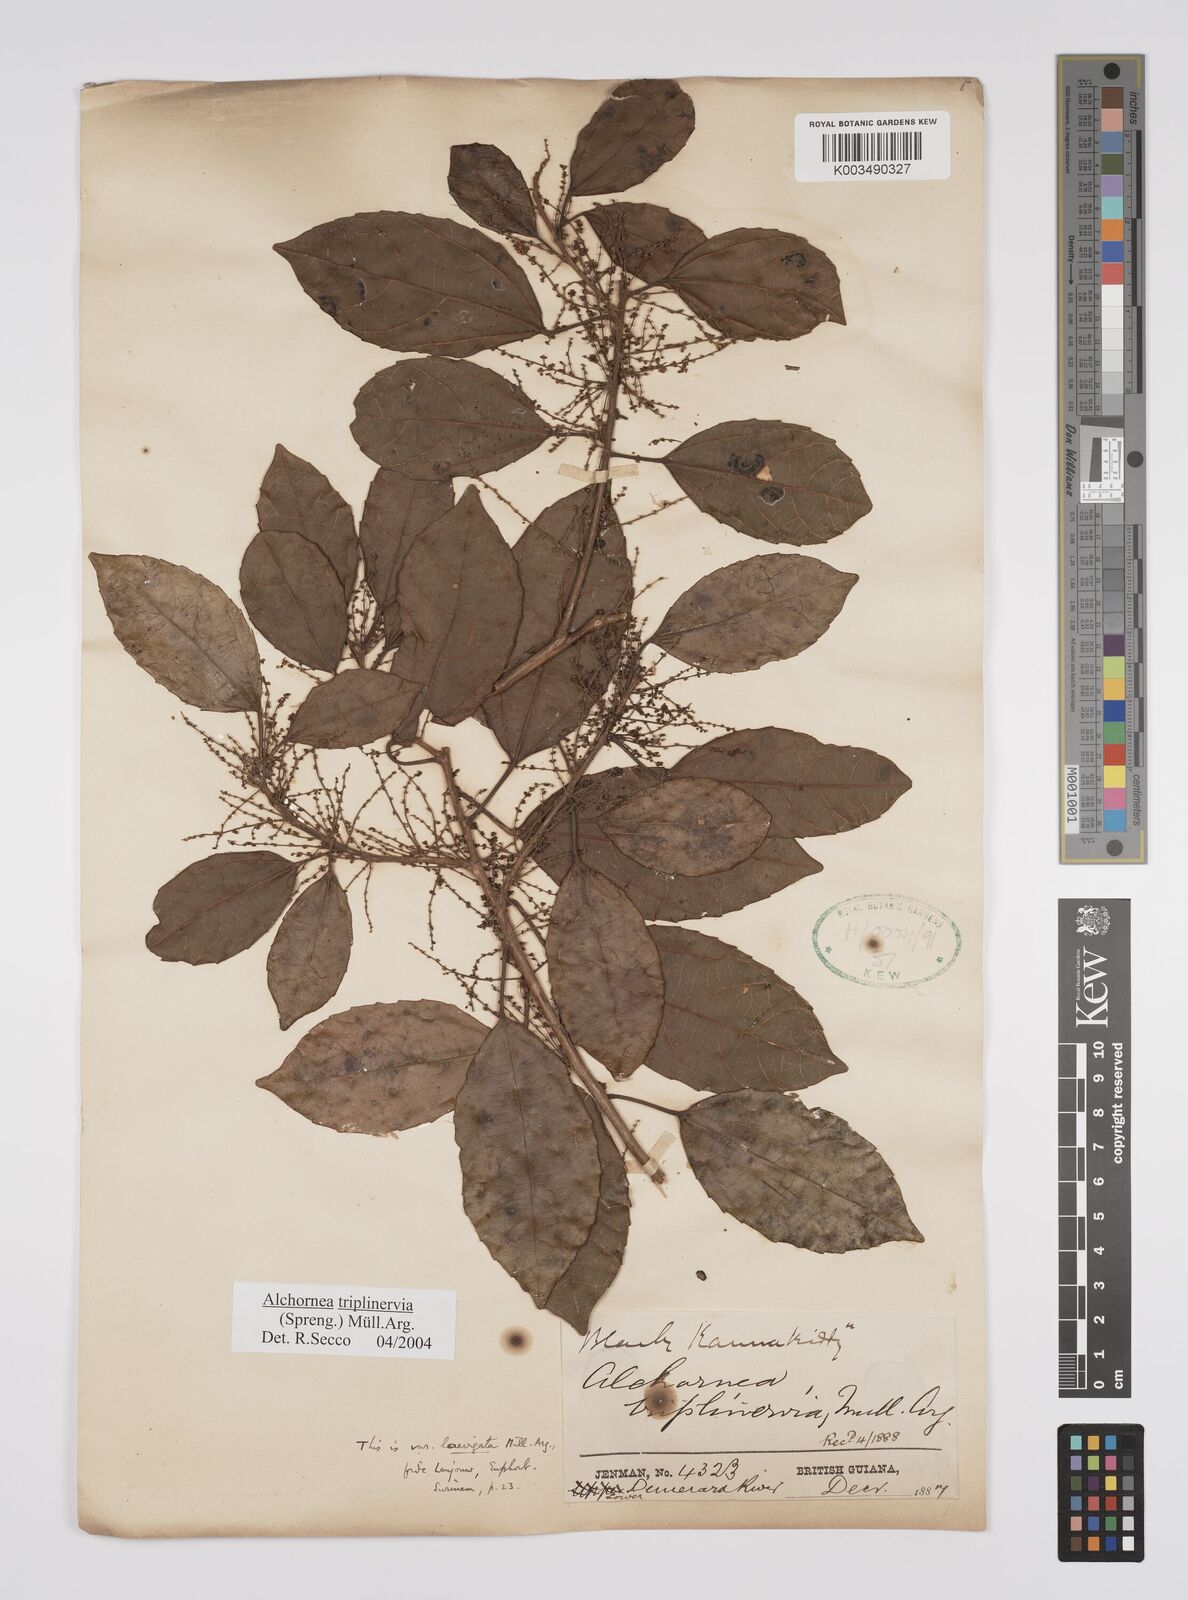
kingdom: Plantae
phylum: Tracheophyta
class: Magnoliopsida
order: Malpighiales
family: Euphorbiaceae
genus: Alchornea
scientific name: Alchornea triplinervia
